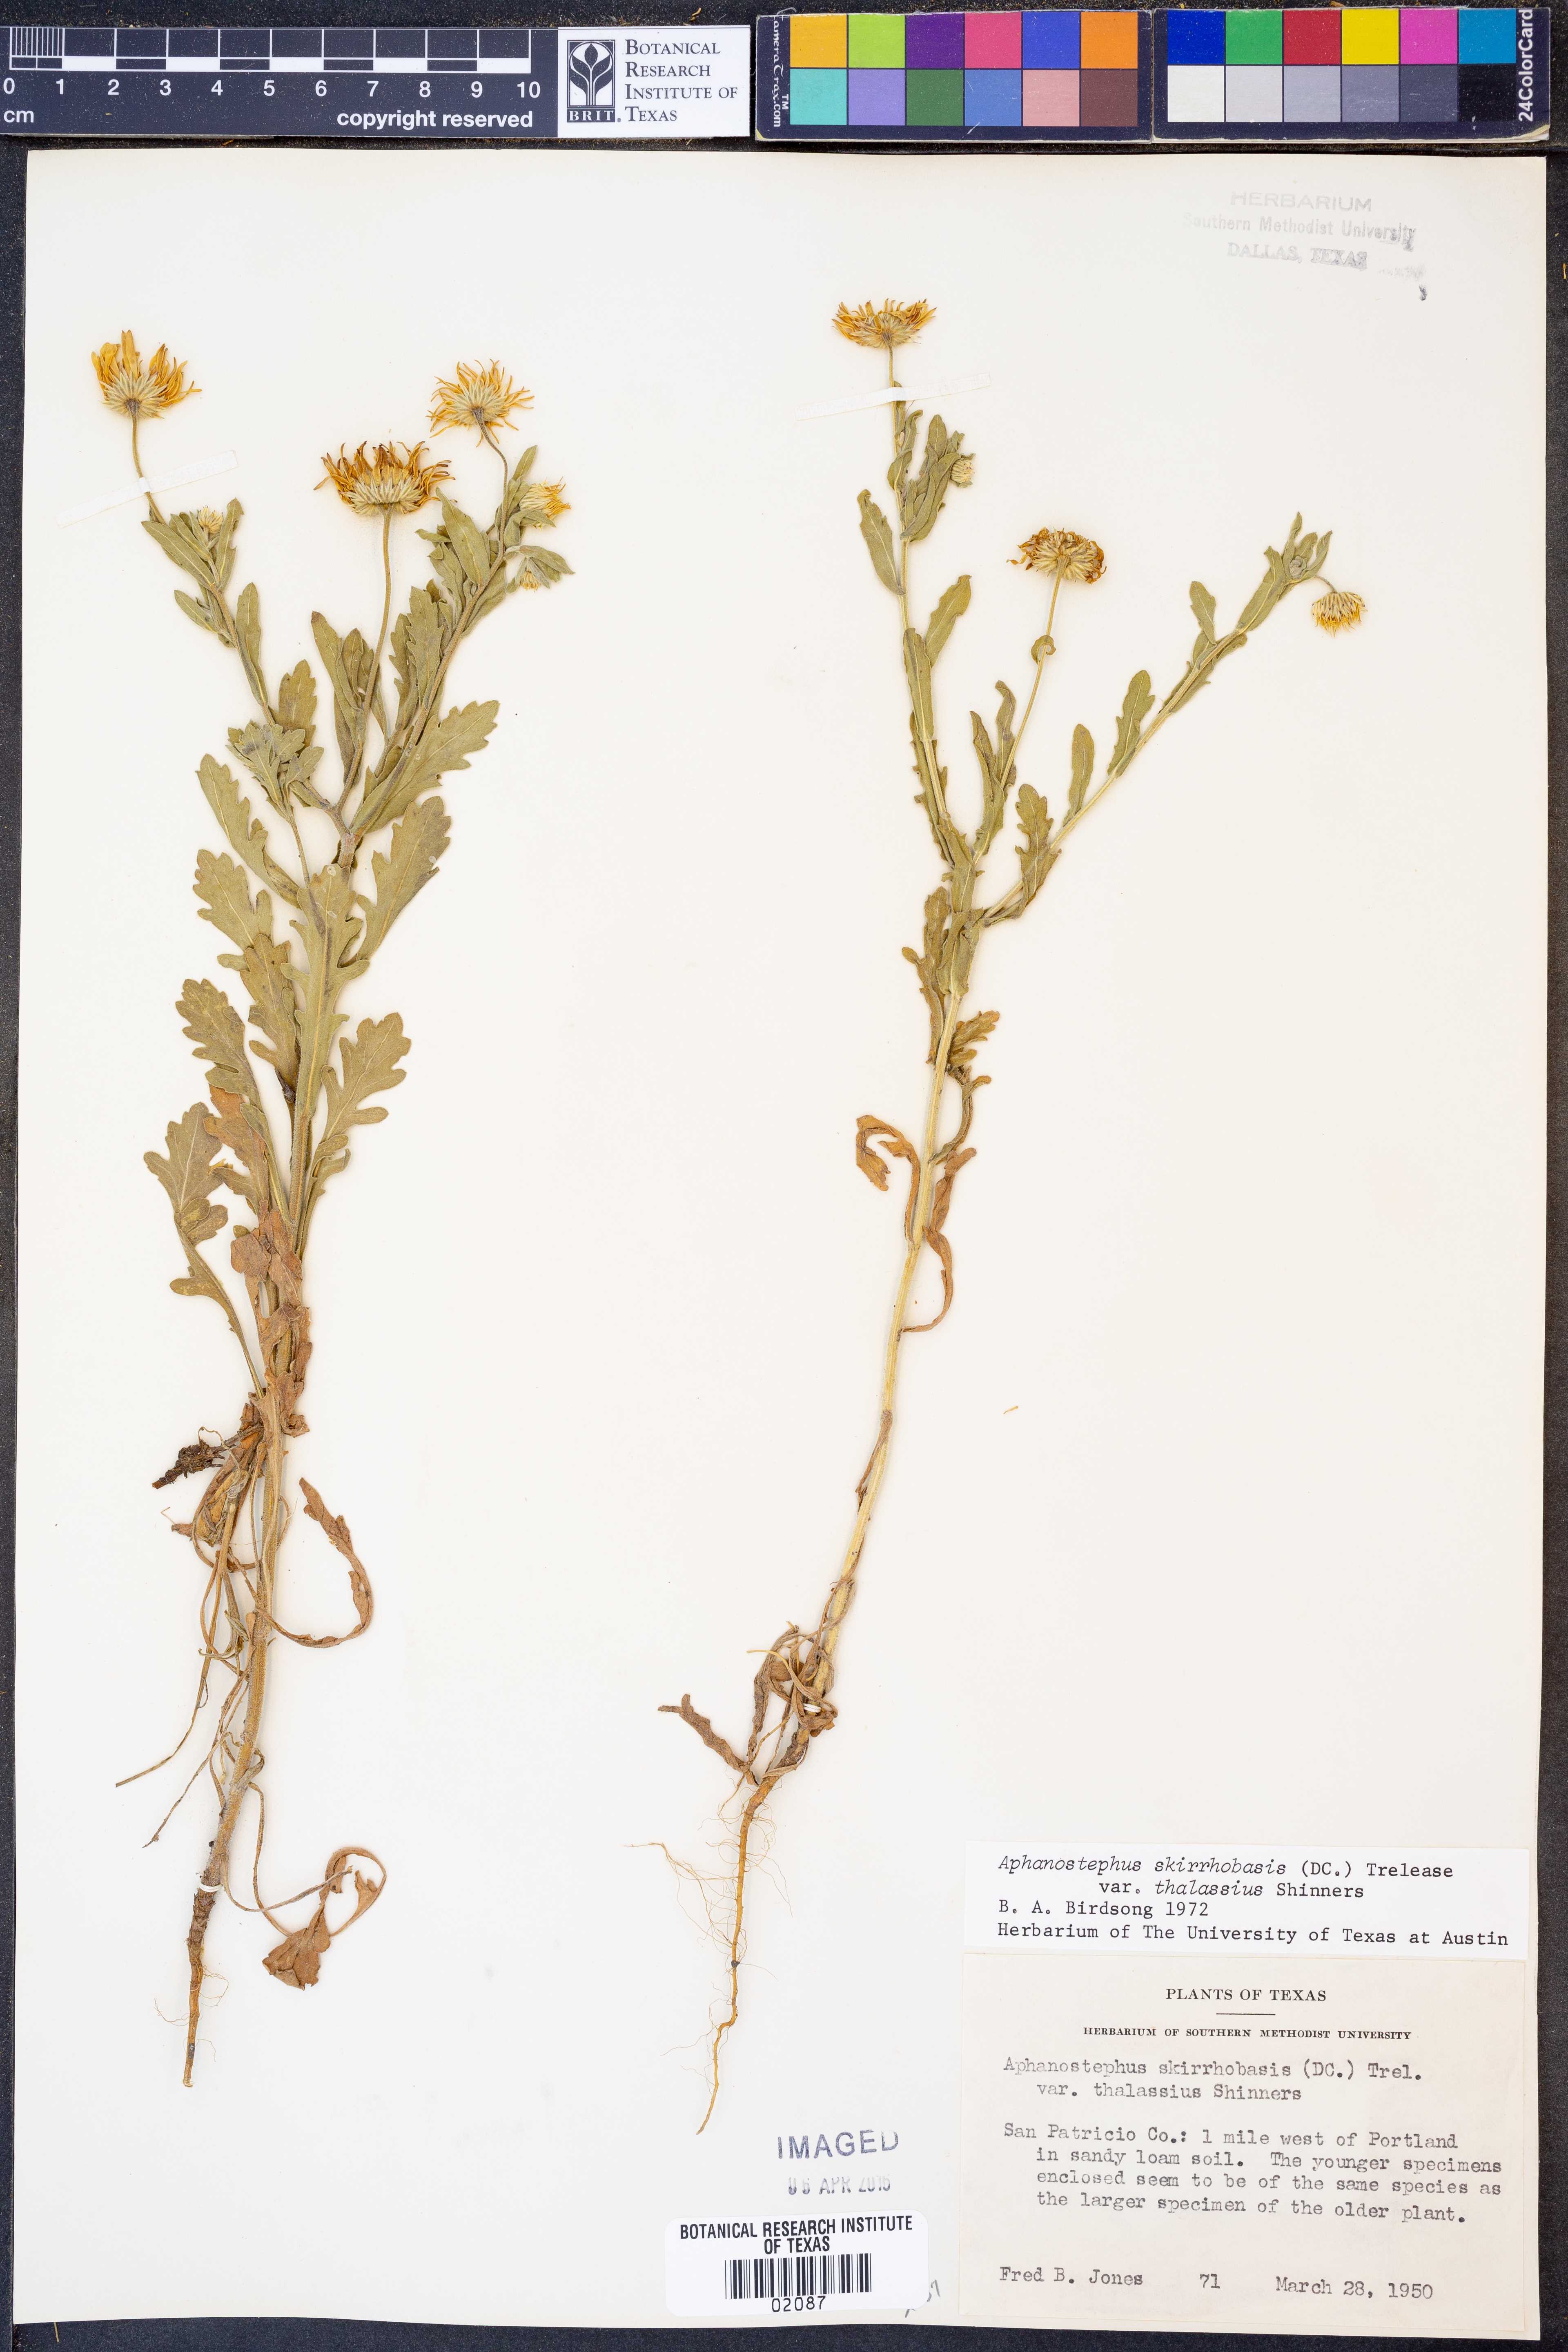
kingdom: Plantae
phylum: Tracheophyta
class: Magnoliopsida
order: Asterales
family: Asteraceae
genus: Aphanostephus
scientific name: Aphanostephus skirrhobasis
